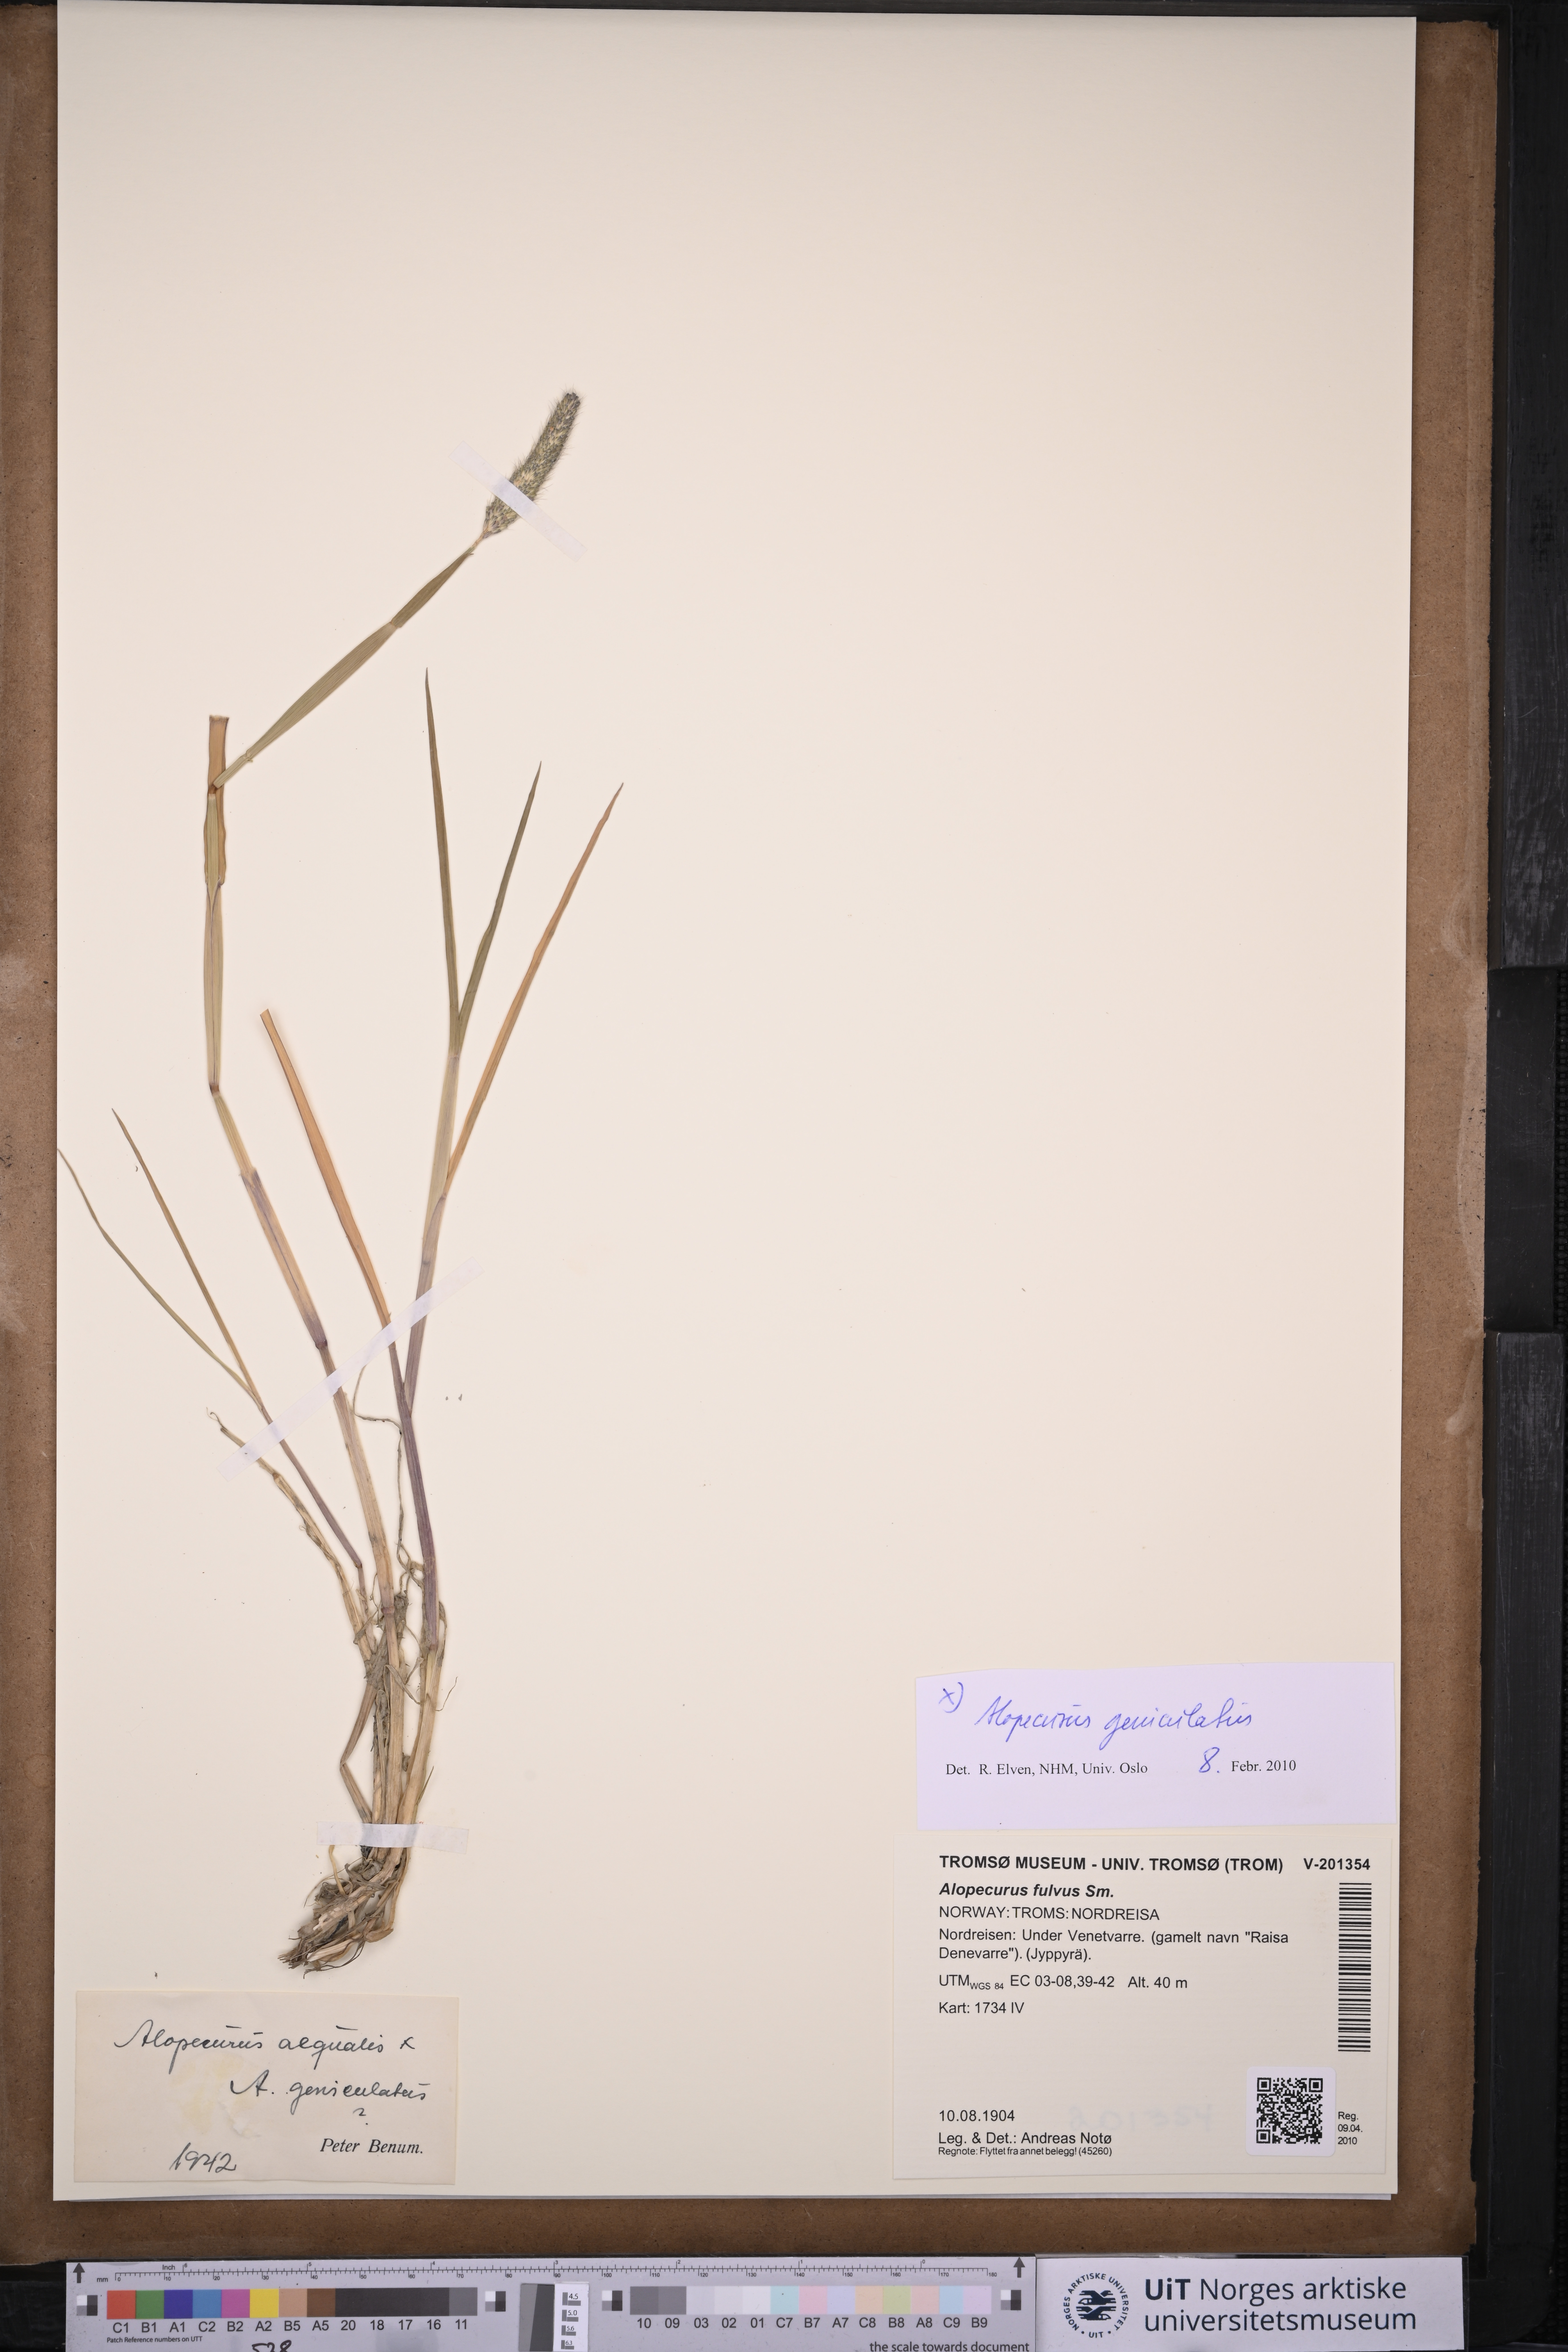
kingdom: Plantae
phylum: Tracheophyta
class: Liliopsida
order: Poales
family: Poaceae
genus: Alopecurus
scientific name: Alopecurus geniculatus
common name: Water foxtail
